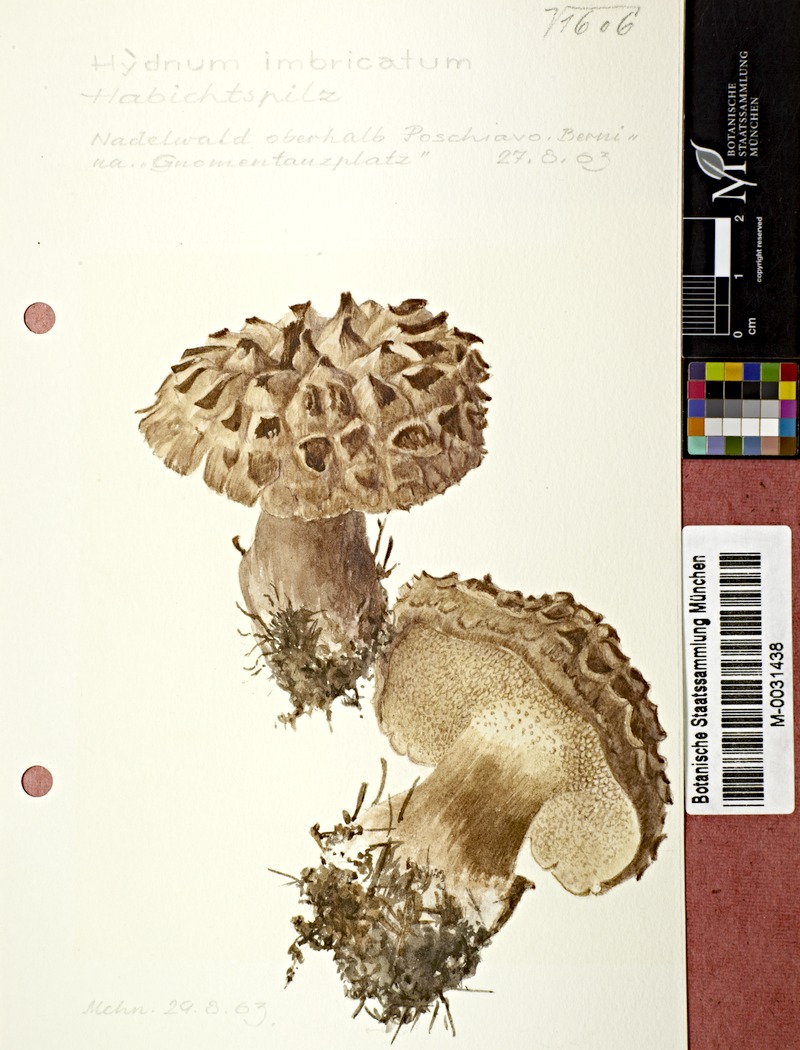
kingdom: Fungi
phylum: Basidiomycota
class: Agaricomycetes
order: Thelephorales
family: Bankeraceae
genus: Sarcodon
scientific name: Sarcodon imbricatus
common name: Shingled hedgehog
